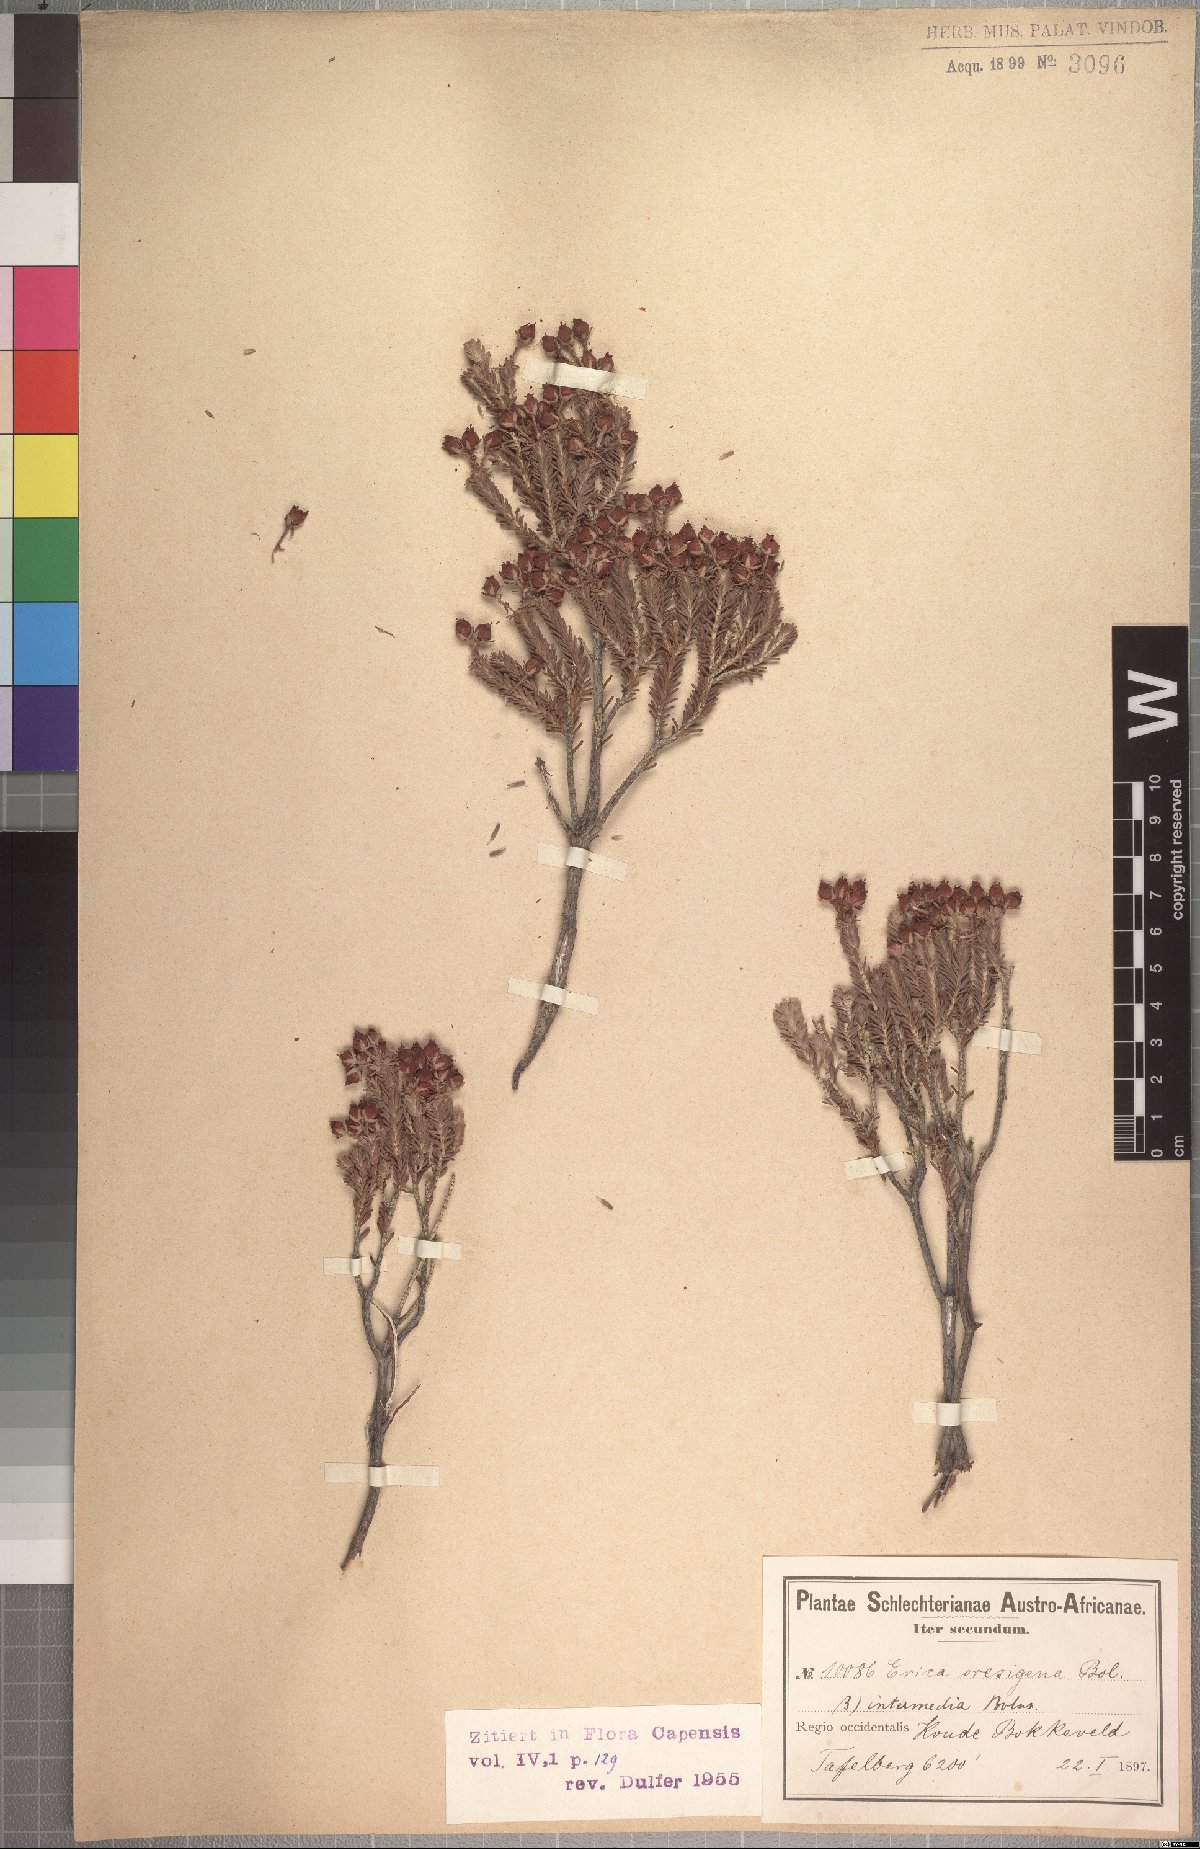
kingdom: Plantae
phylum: Tracheophyta
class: Magnoliopsida
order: Ericales
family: Ericaceae
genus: Erica
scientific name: Erica taylorii
